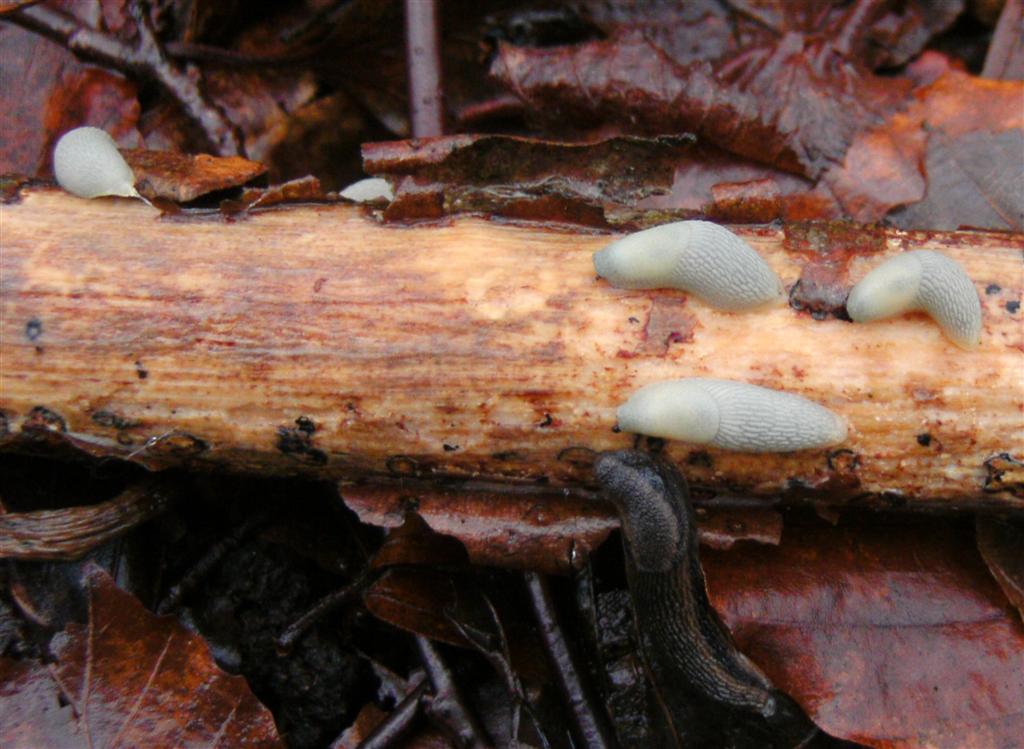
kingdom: Fungi
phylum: Basidiomycota
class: Agaricomycetes
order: Corticiales
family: Vuilleminiaceae
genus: Vuilleminia
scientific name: Vuilleminia comedens
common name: almindelig barksprænger
